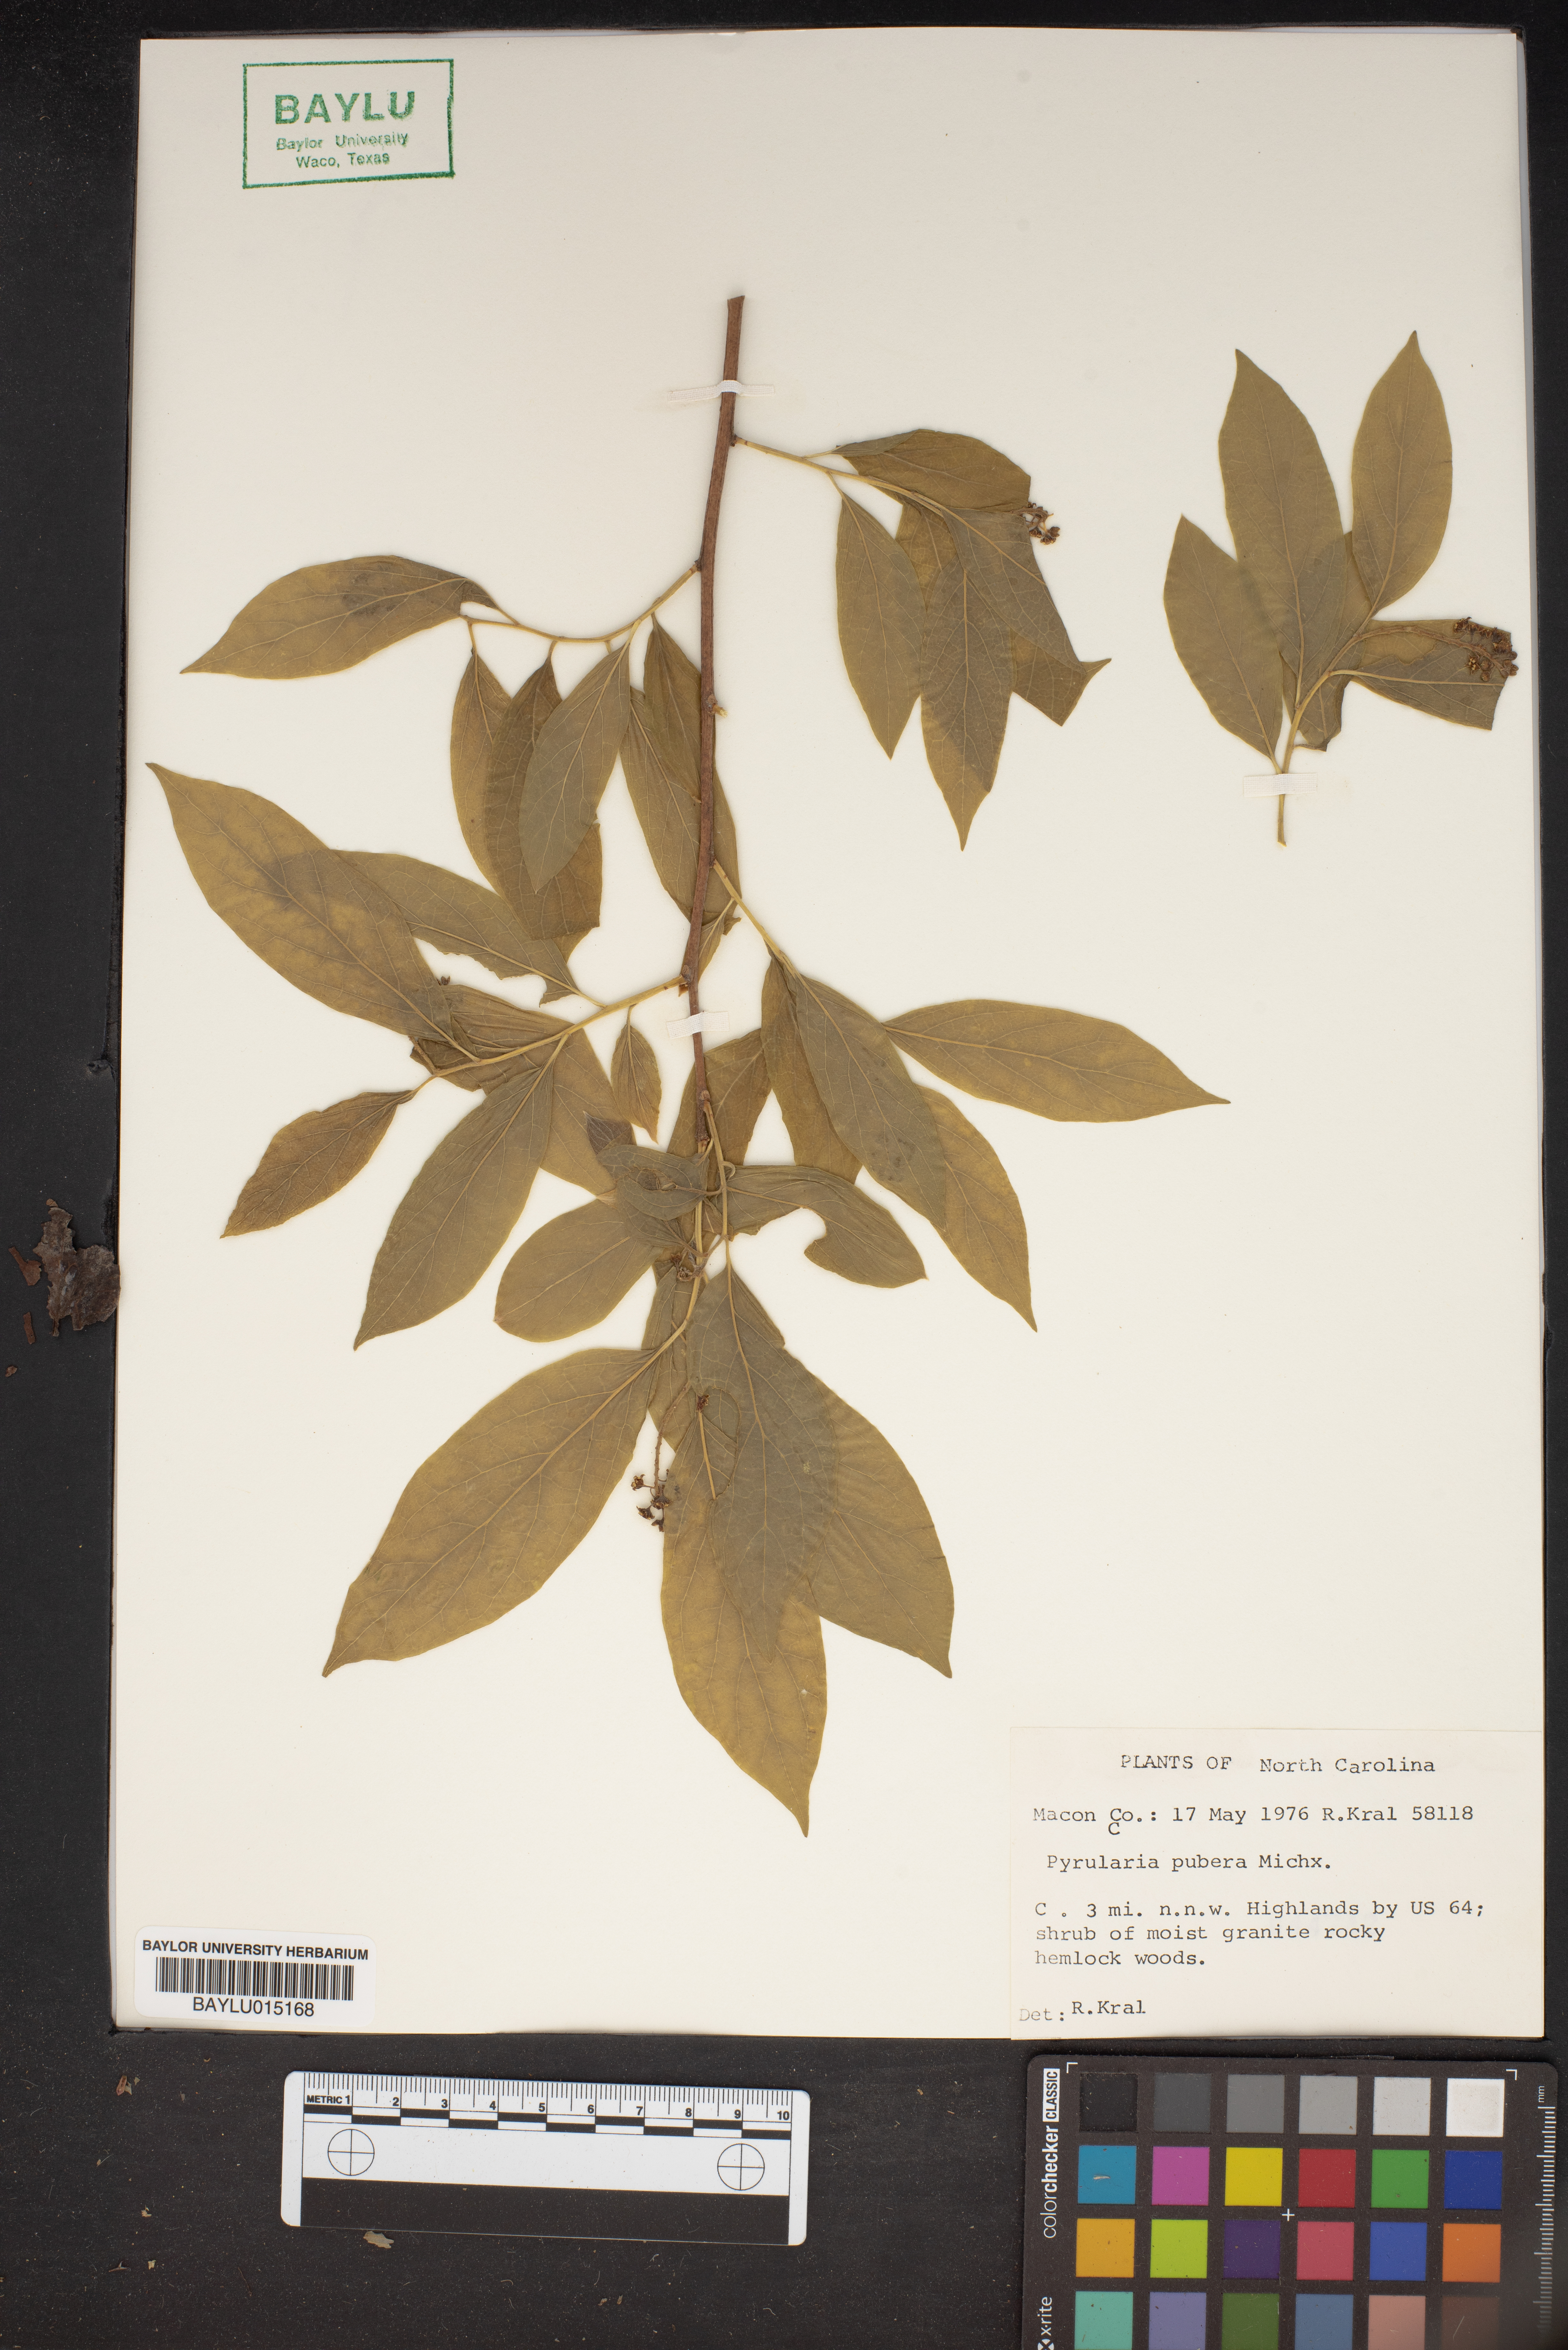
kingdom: Plantae
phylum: Tracheophyta
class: Magnoliopsida
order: Santalales
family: Cervantesiaceae
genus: Pyrularia
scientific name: Pyrularia pubera
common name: Oilnut
